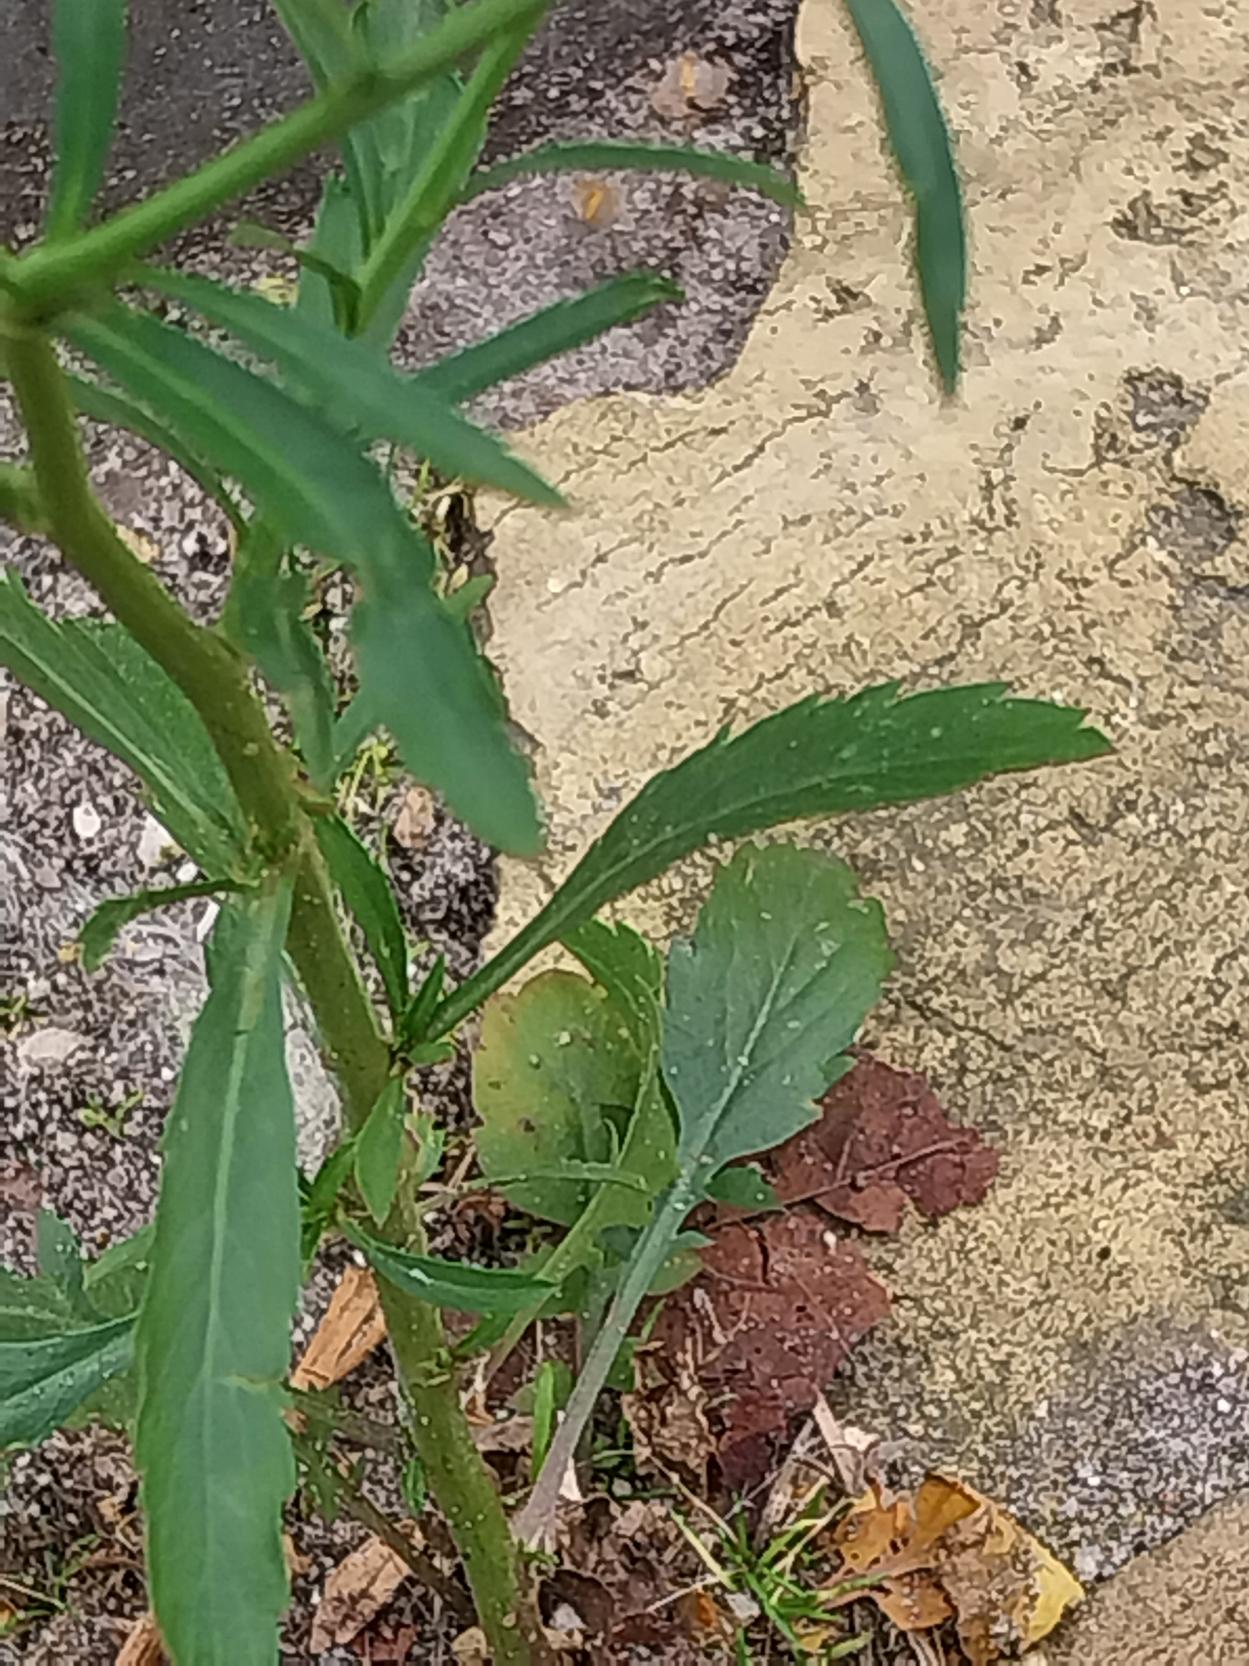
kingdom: Plantae
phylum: Tracheophyta
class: Magnoliopsida
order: Brassicales
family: Brassicaceae
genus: Lepidium
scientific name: Lepidium virginicum
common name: Virginsk karse
